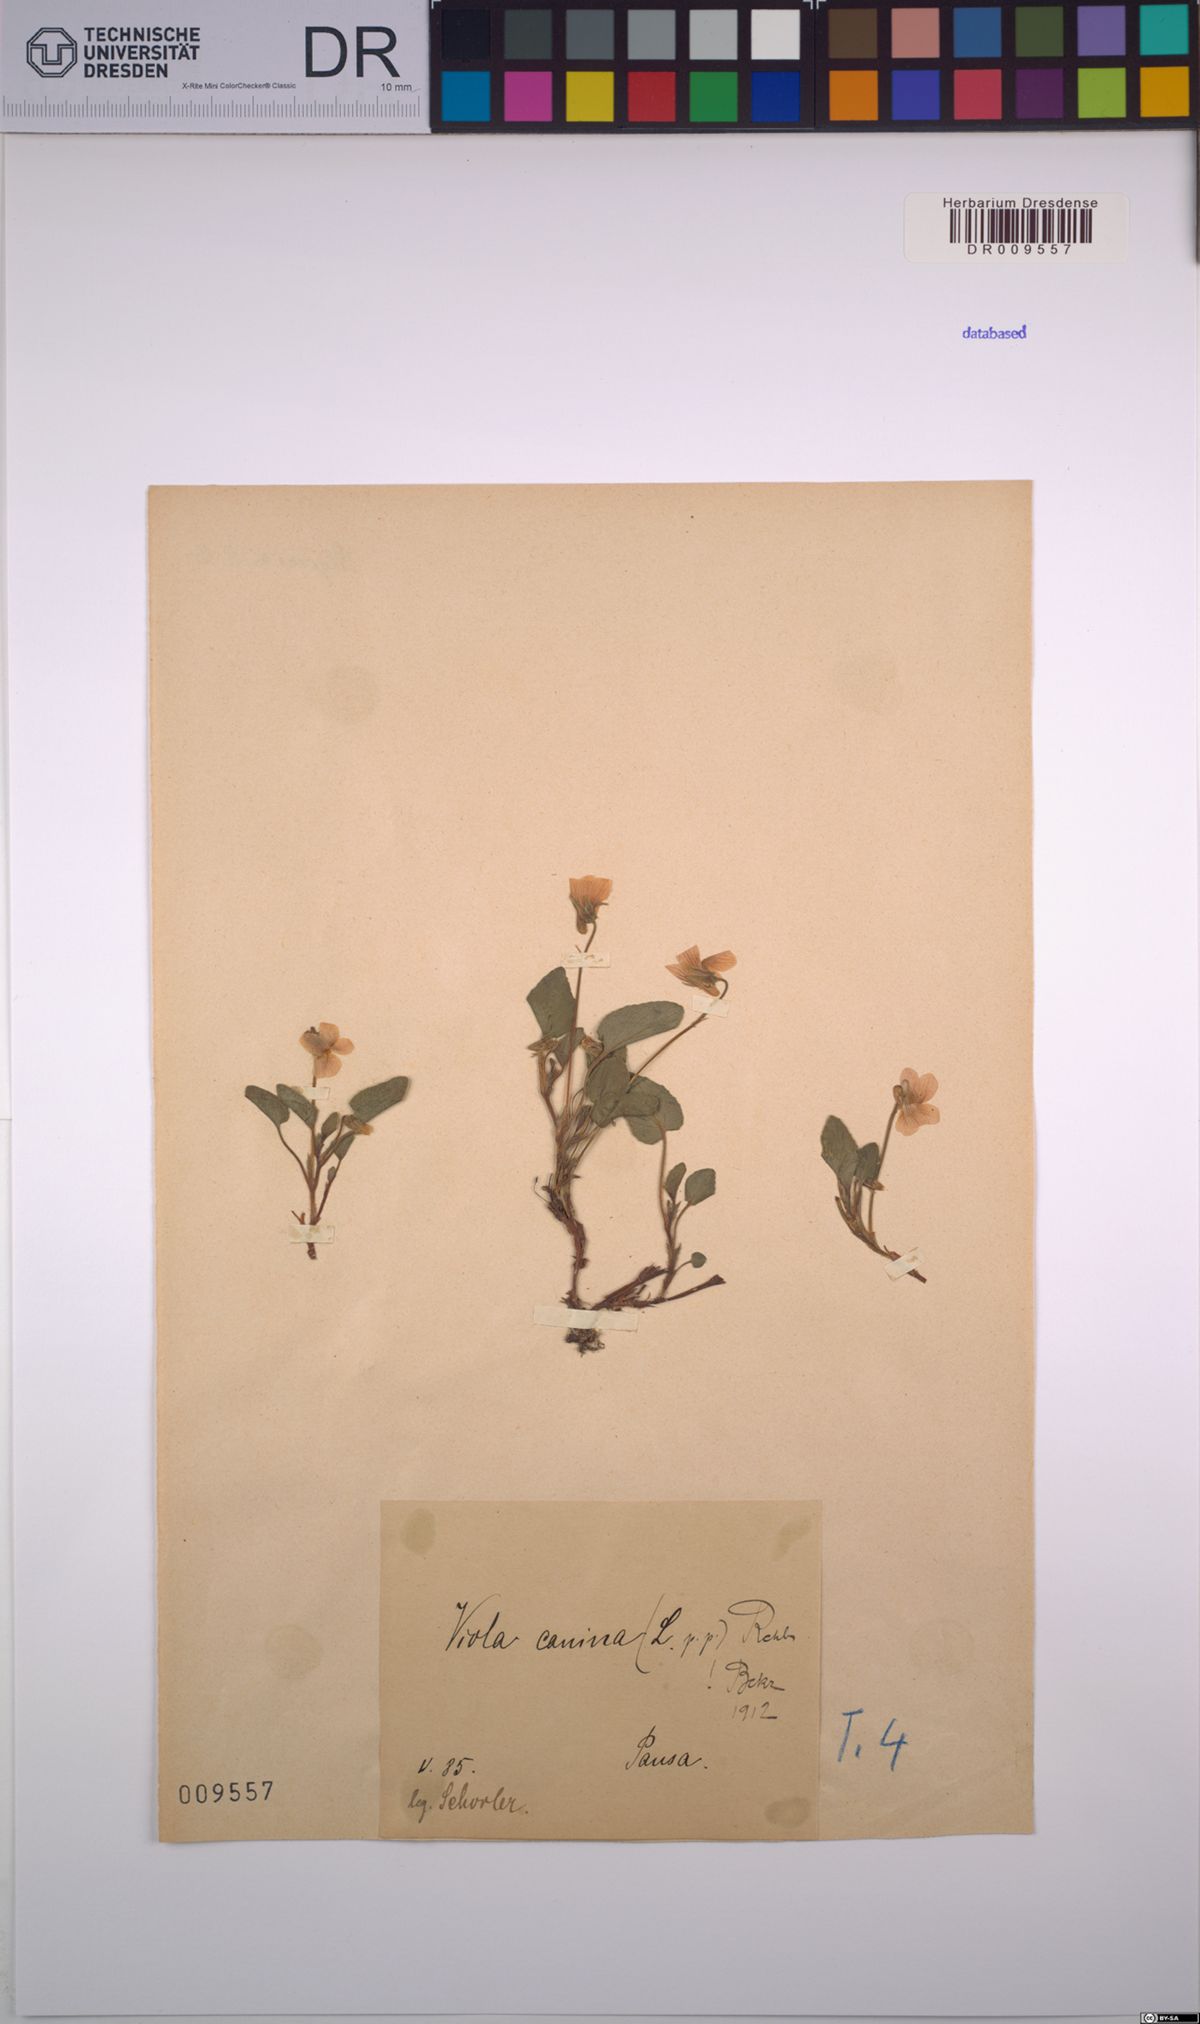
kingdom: Plantae
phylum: Tracheophyta
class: Magnoliopsida
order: Malpighiales
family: Violaceae
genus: Viola
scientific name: Viola canina
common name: Heath dog-violet
